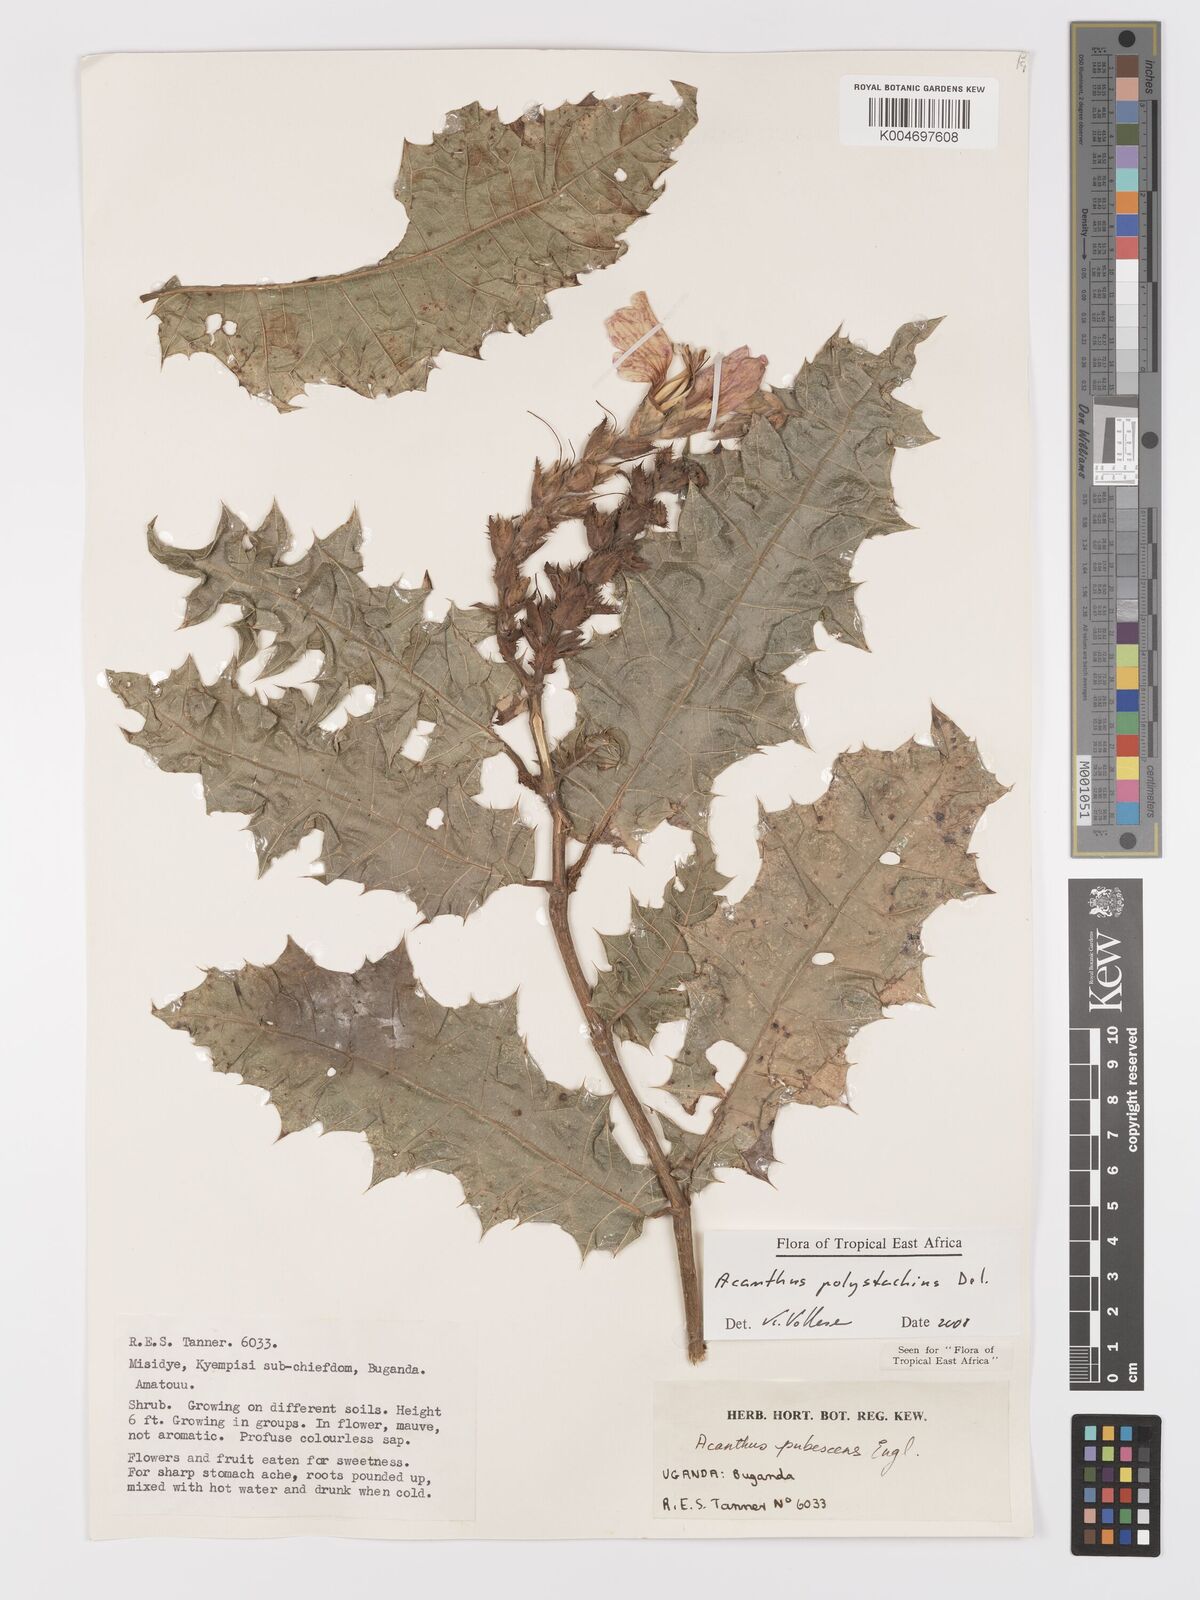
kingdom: Plantae
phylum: Tracheophyta
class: Magnoliopsida
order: Lamiales
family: Acanthaceae
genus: Acanthus
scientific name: Acanthus polystachyus
